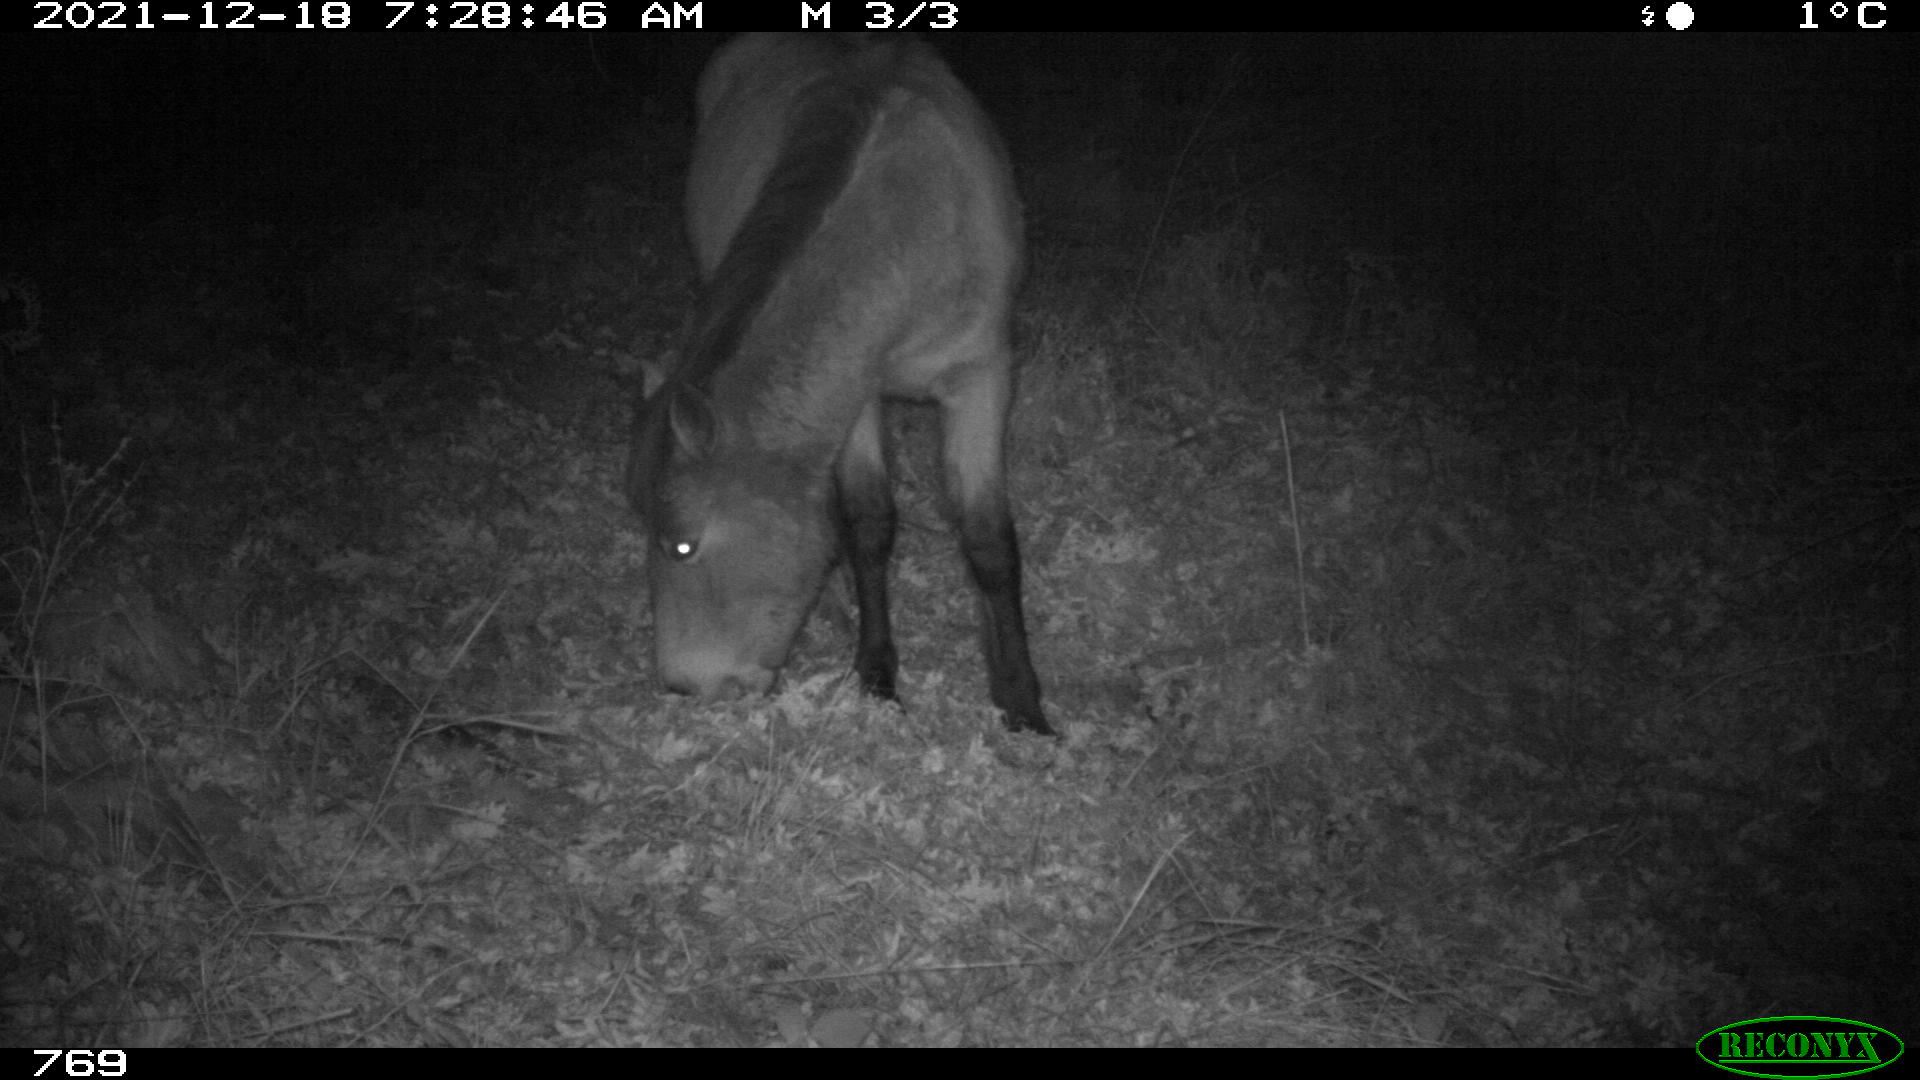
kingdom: Animalia
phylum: Chordata
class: Mammalia
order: Perissodactyla
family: Equidae
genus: Equus
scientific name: Equus caballus
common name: Horse
